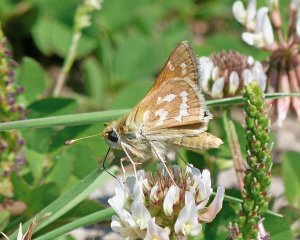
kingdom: Animalia
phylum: Arthropoda
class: Insecta
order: Lepidoptera
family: Hesperiidae
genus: Hesperia
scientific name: Hesperia comma
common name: Western Branded Skipper
